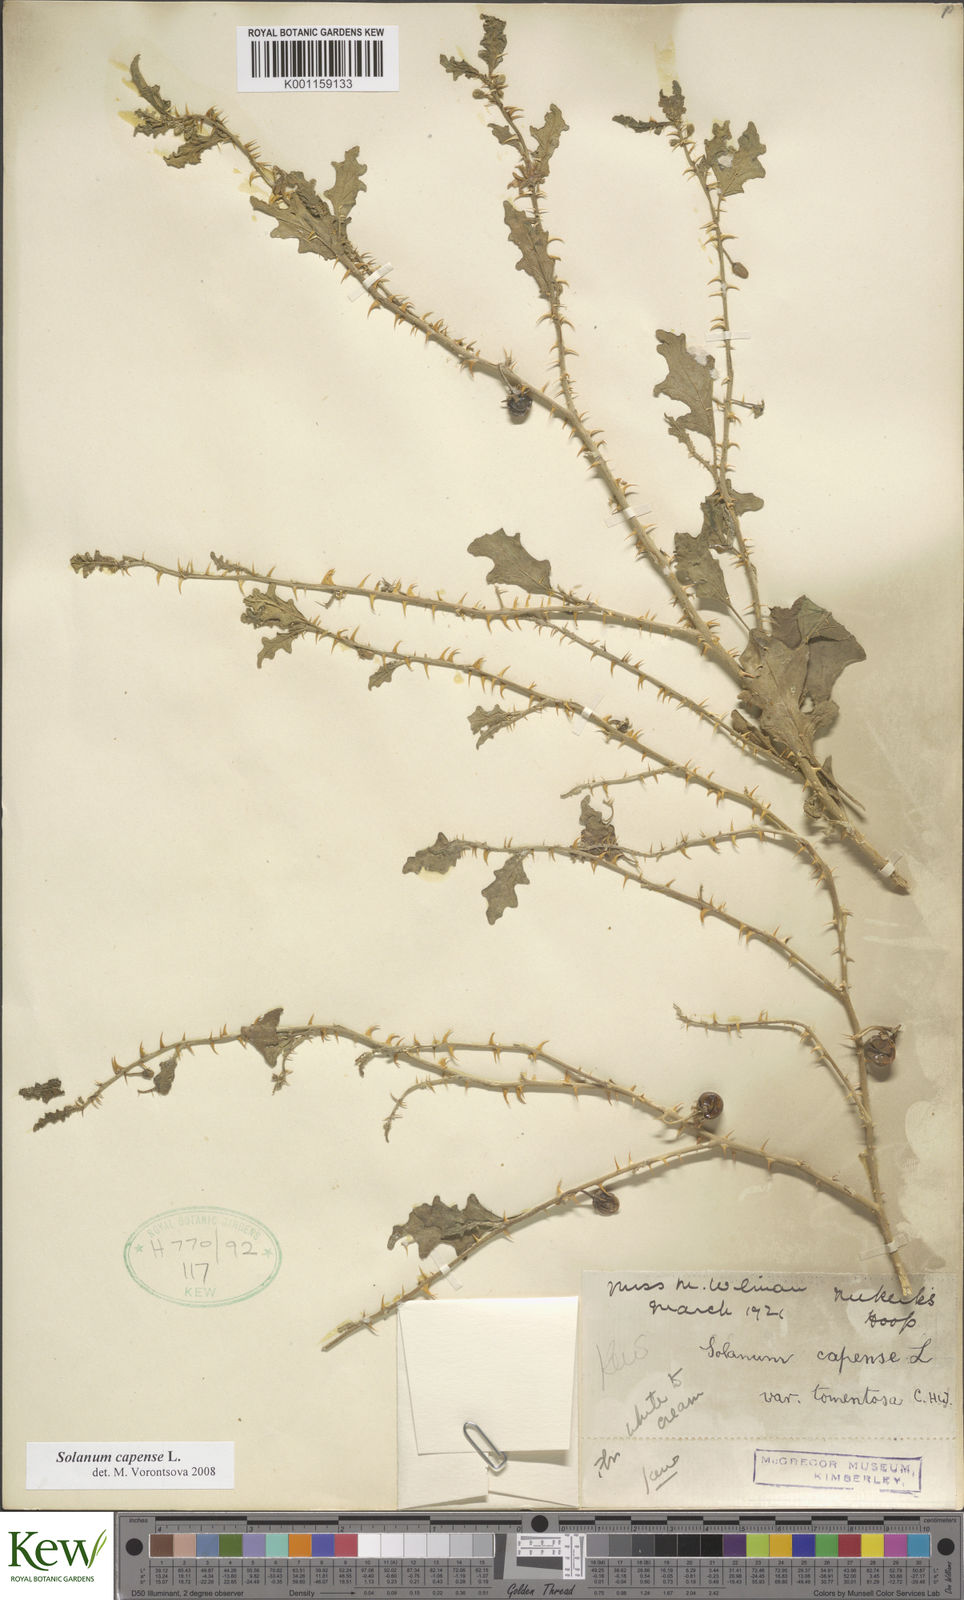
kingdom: Plantae
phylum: Tracheophyta
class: Magnoliopsida
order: Solanales
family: Solanaceae
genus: Solanum
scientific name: Solanum capense
